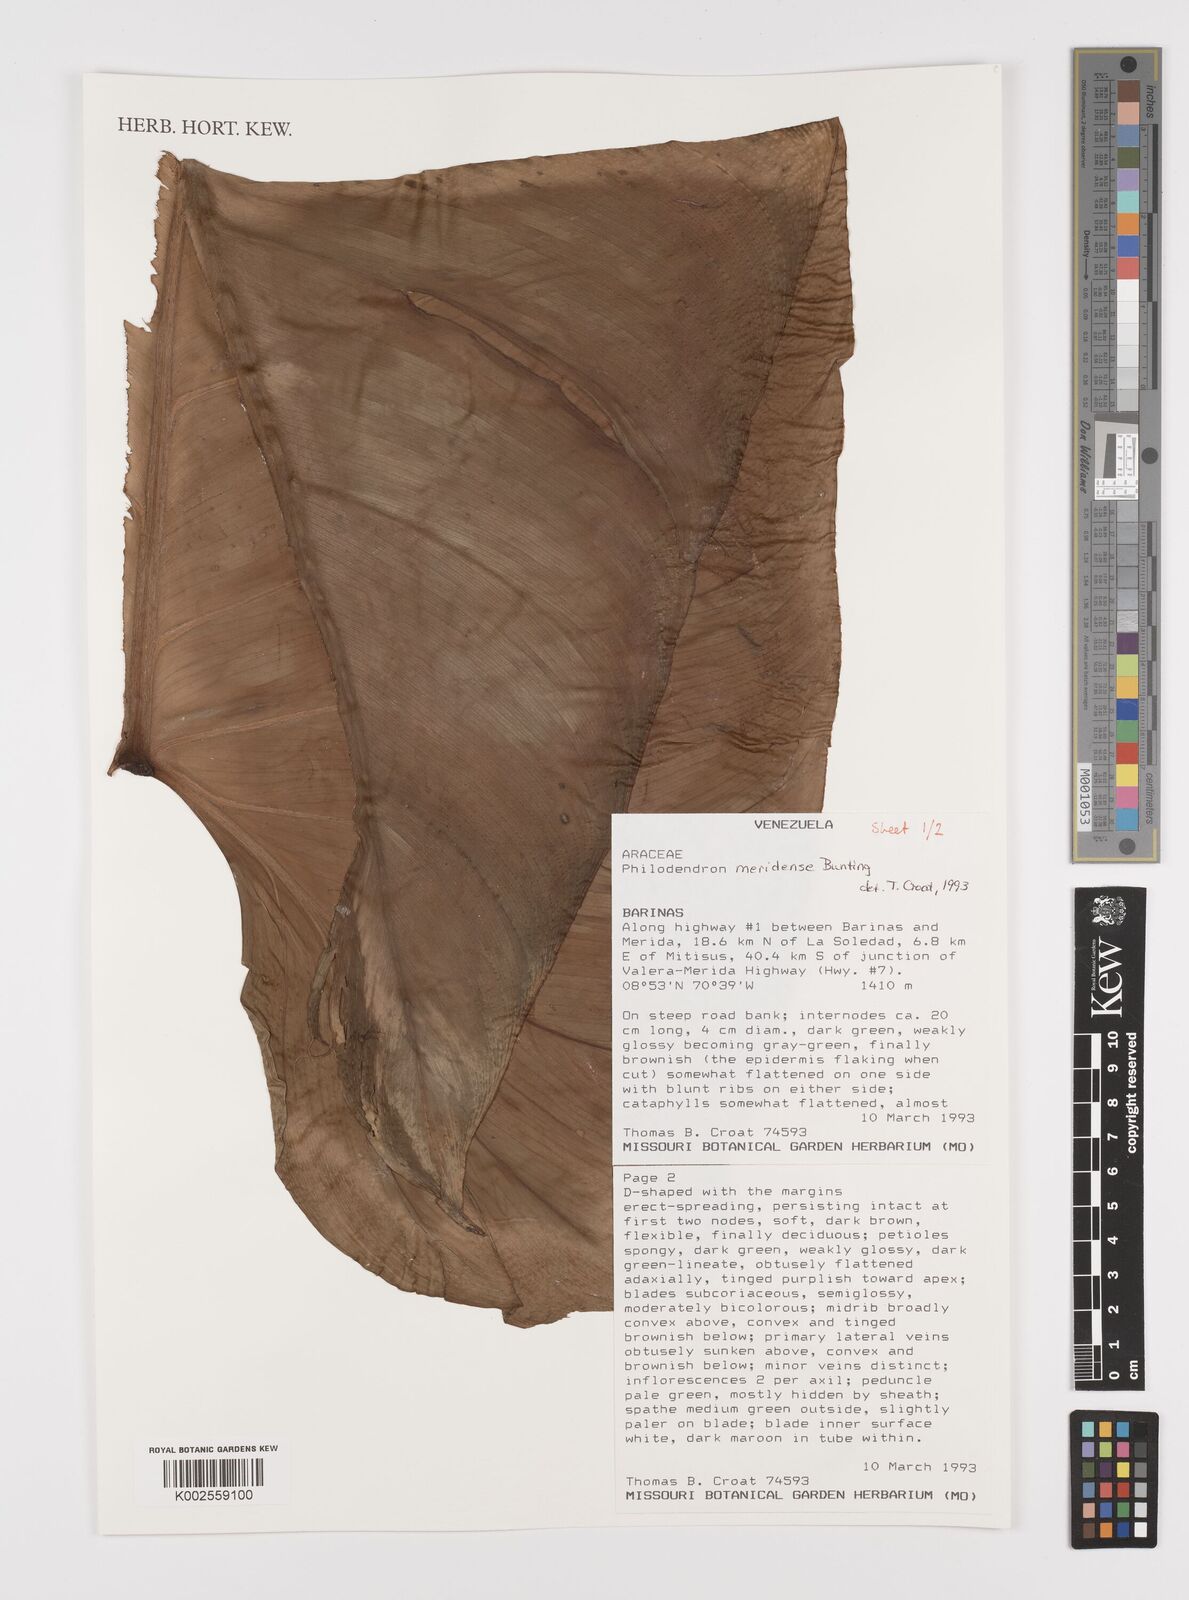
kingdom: Plantae
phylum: Tracheophyta
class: Liliopsida
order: Alismatales
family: Araceae
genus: Philodendron
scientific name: Philodendron meridense
